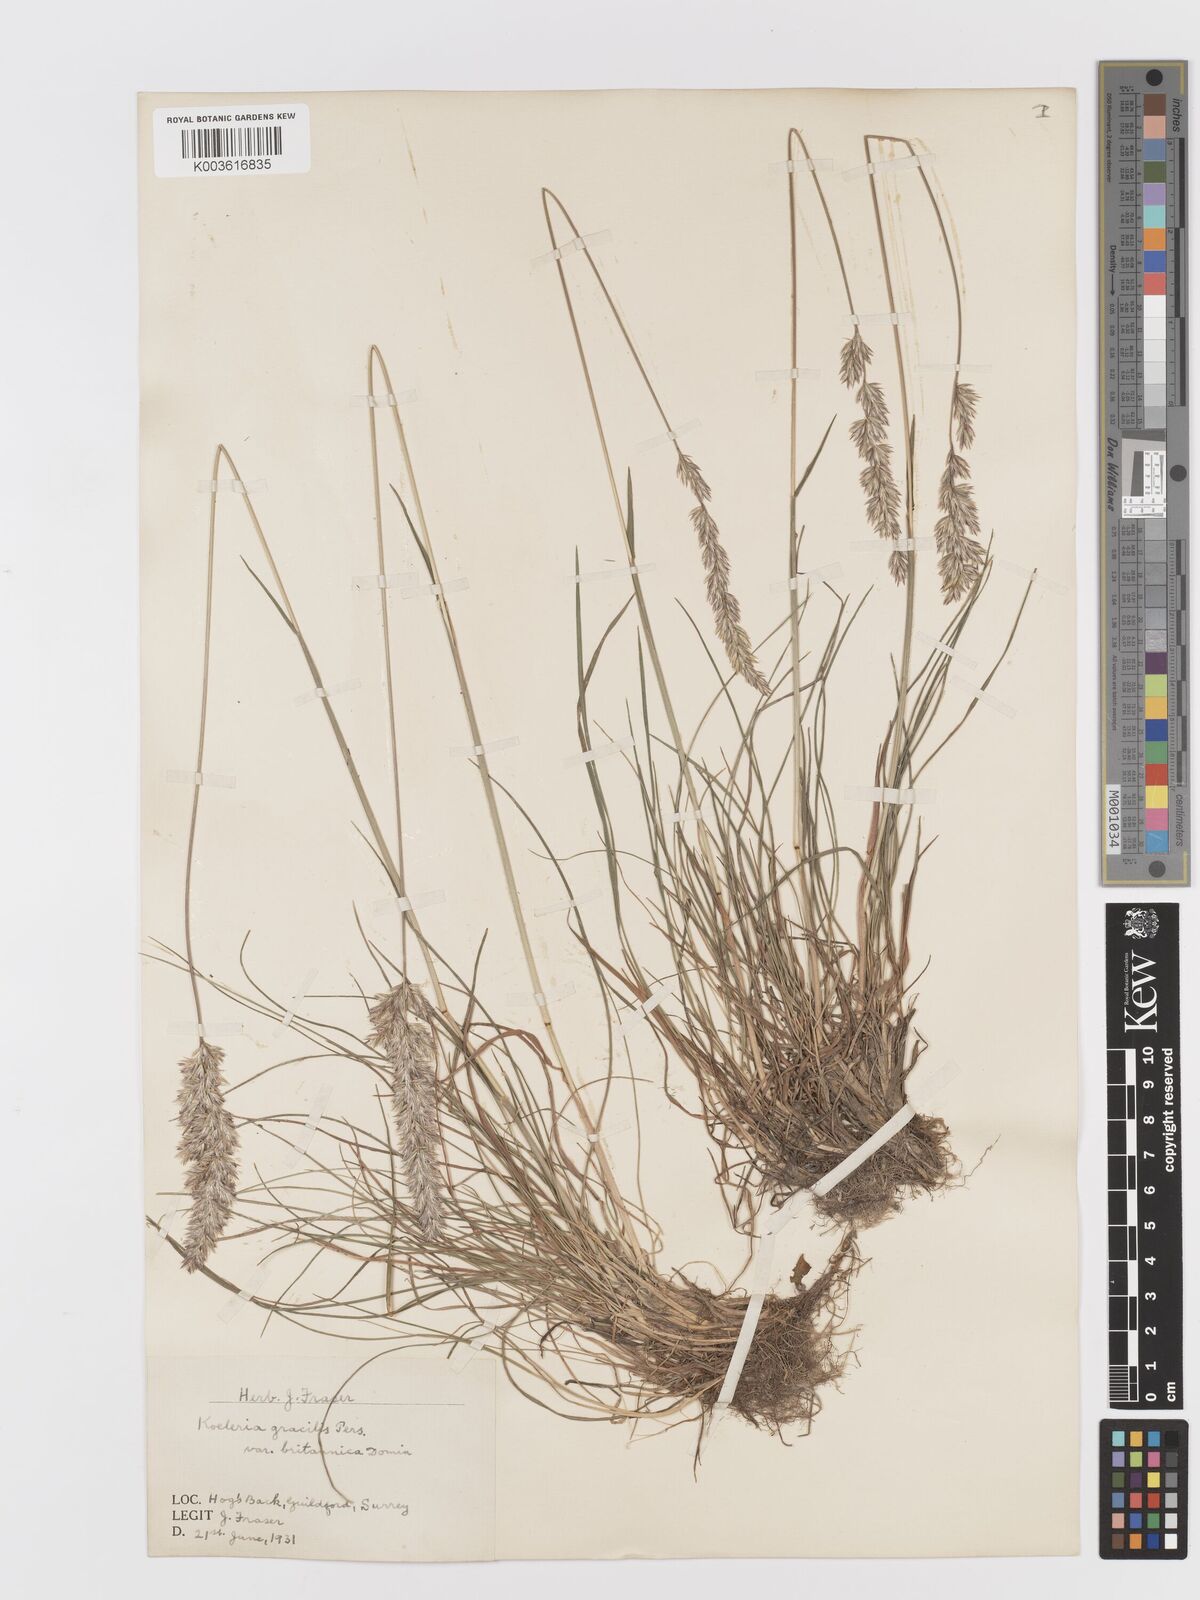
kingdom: Plantae
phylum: Tracheophyta
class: Liliopsida
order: Poales
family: Poaceae
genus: Koeleria
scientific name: Koeleria macrantha
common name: Crested hair-grass
